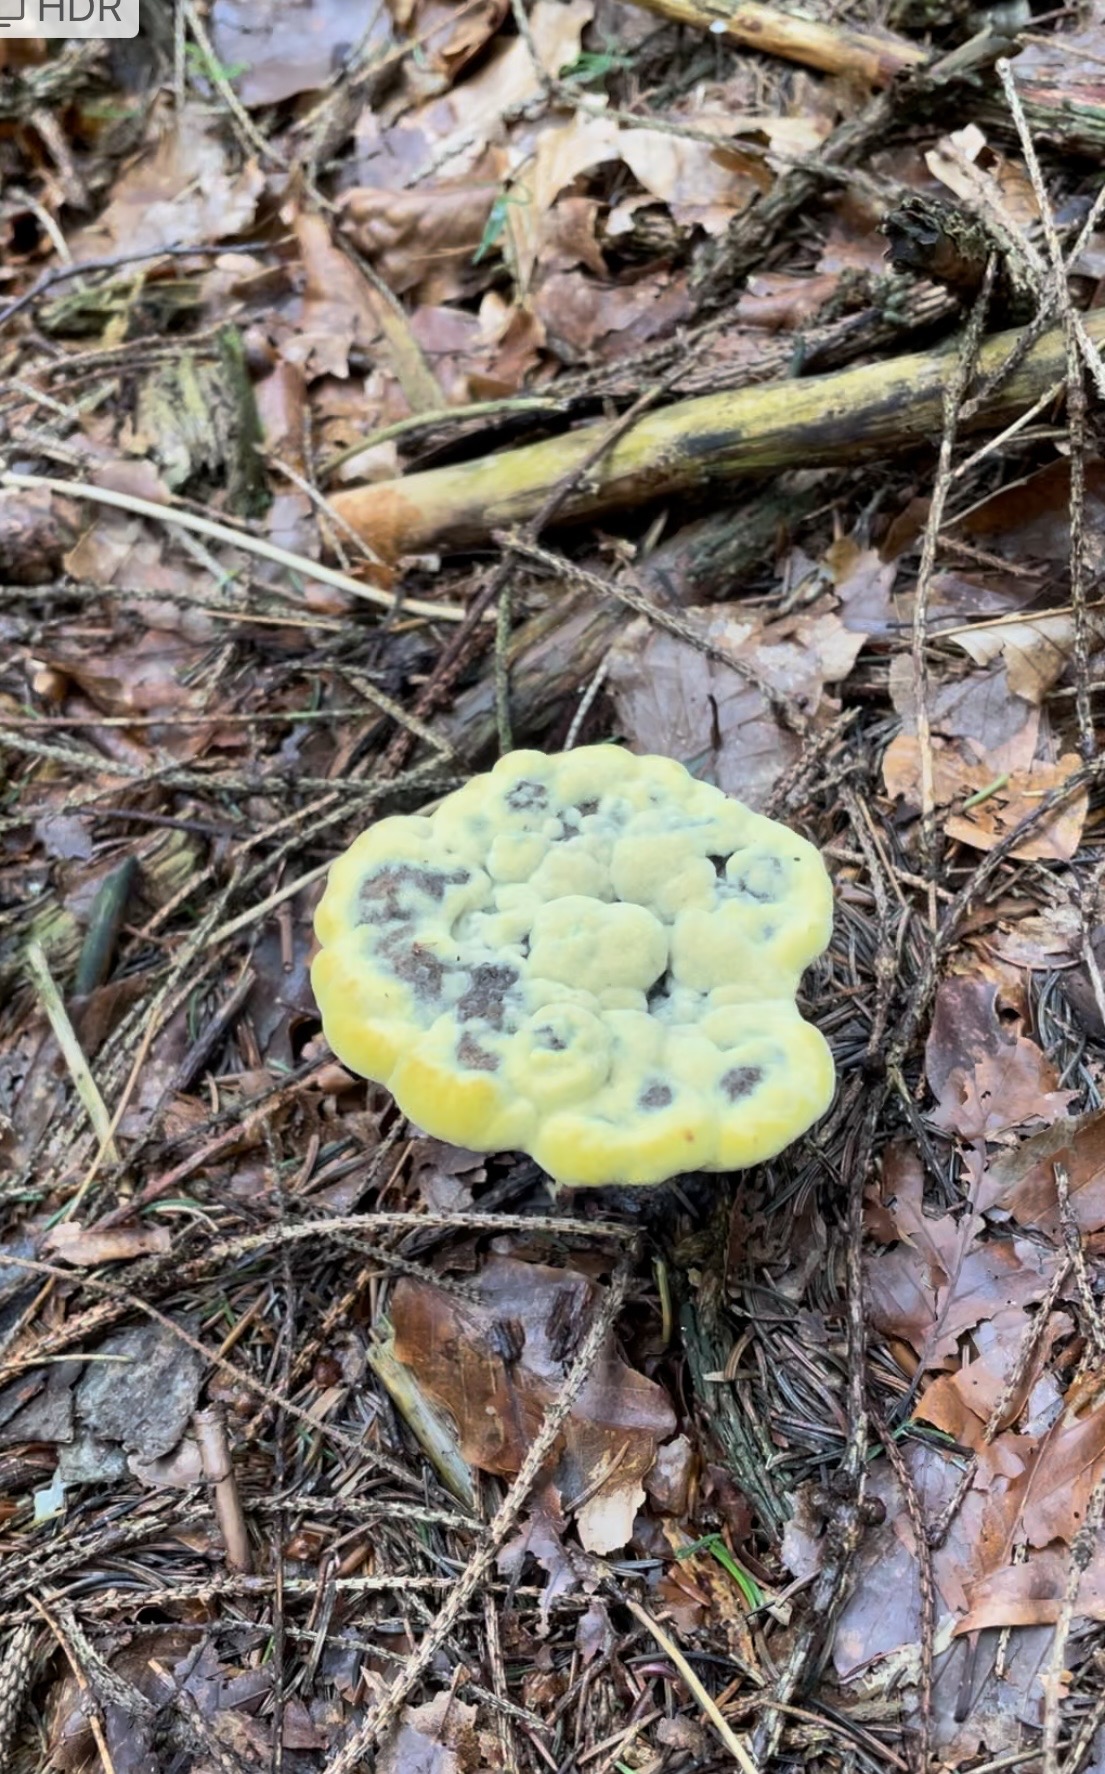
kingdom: Fungi
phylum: Basidiomycota
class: Agaricomycetes
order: Polyporales
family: Laetiporaceae
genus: Phaeolus
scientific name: Phaeolus schweinitzii
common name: brunporesvamp
